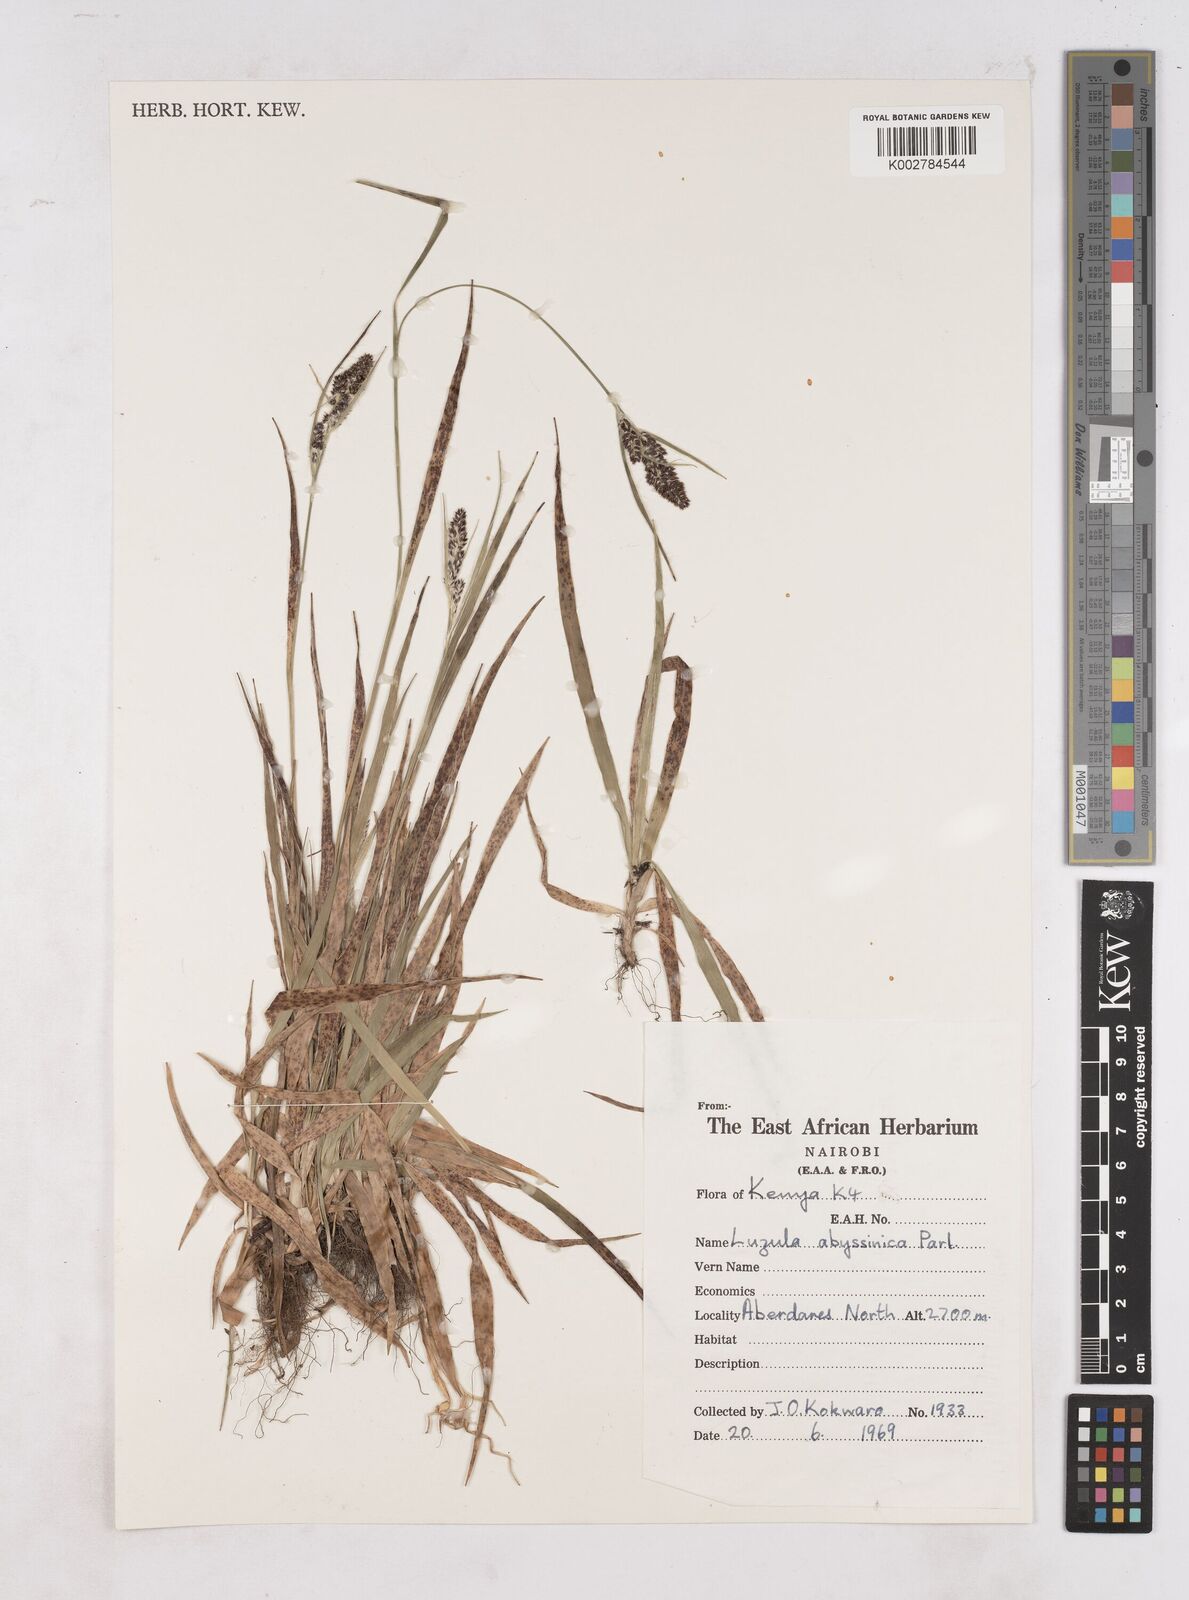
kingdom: Plantae
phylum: Tracheophyta
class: Liliopsida
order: Poales
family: Juncaceae
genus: Luzula
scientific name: Luzula abyssinica
